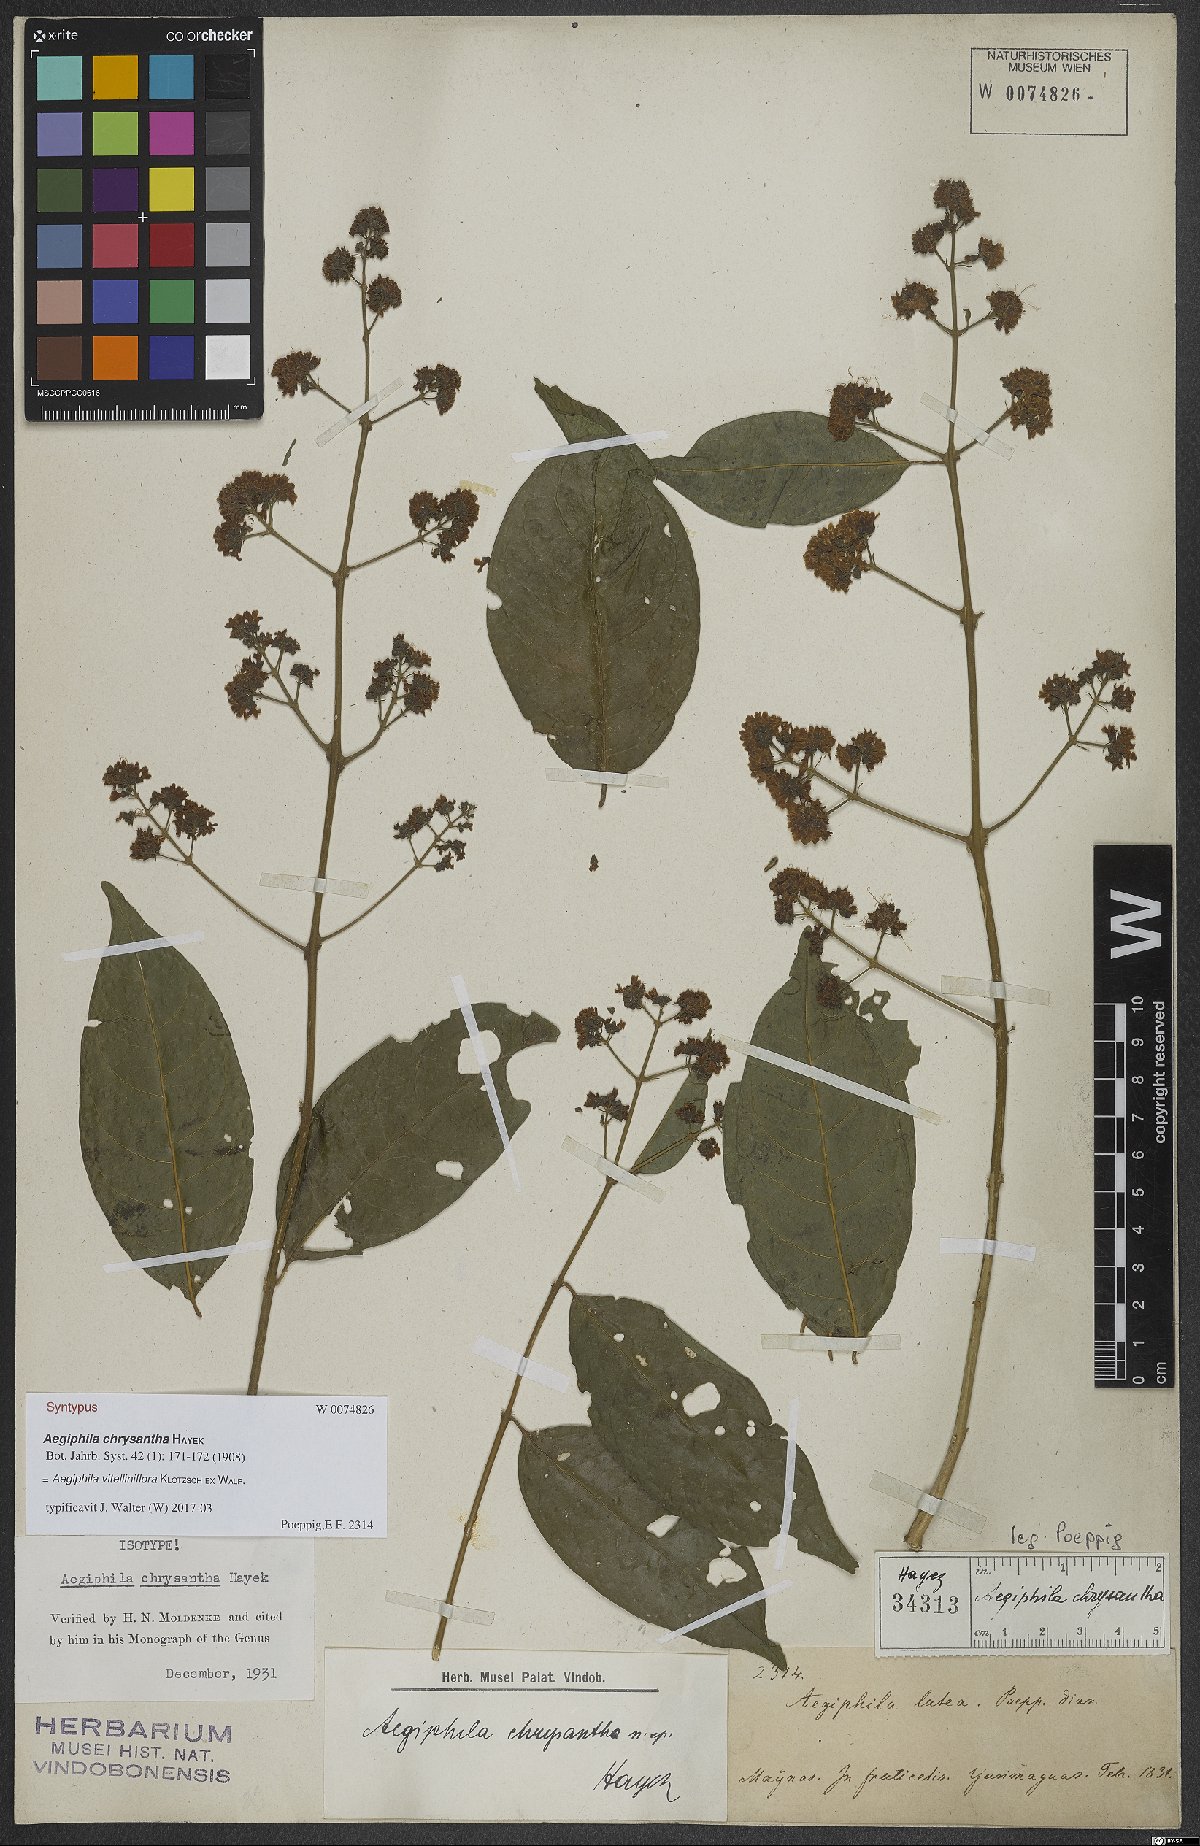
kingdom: Plantae
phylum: Tracheophyta
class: Magnoliopsida
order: Lamiales
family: Lamiaceae
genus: Aegiphila
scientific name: Aegiphila vitelliniflora
